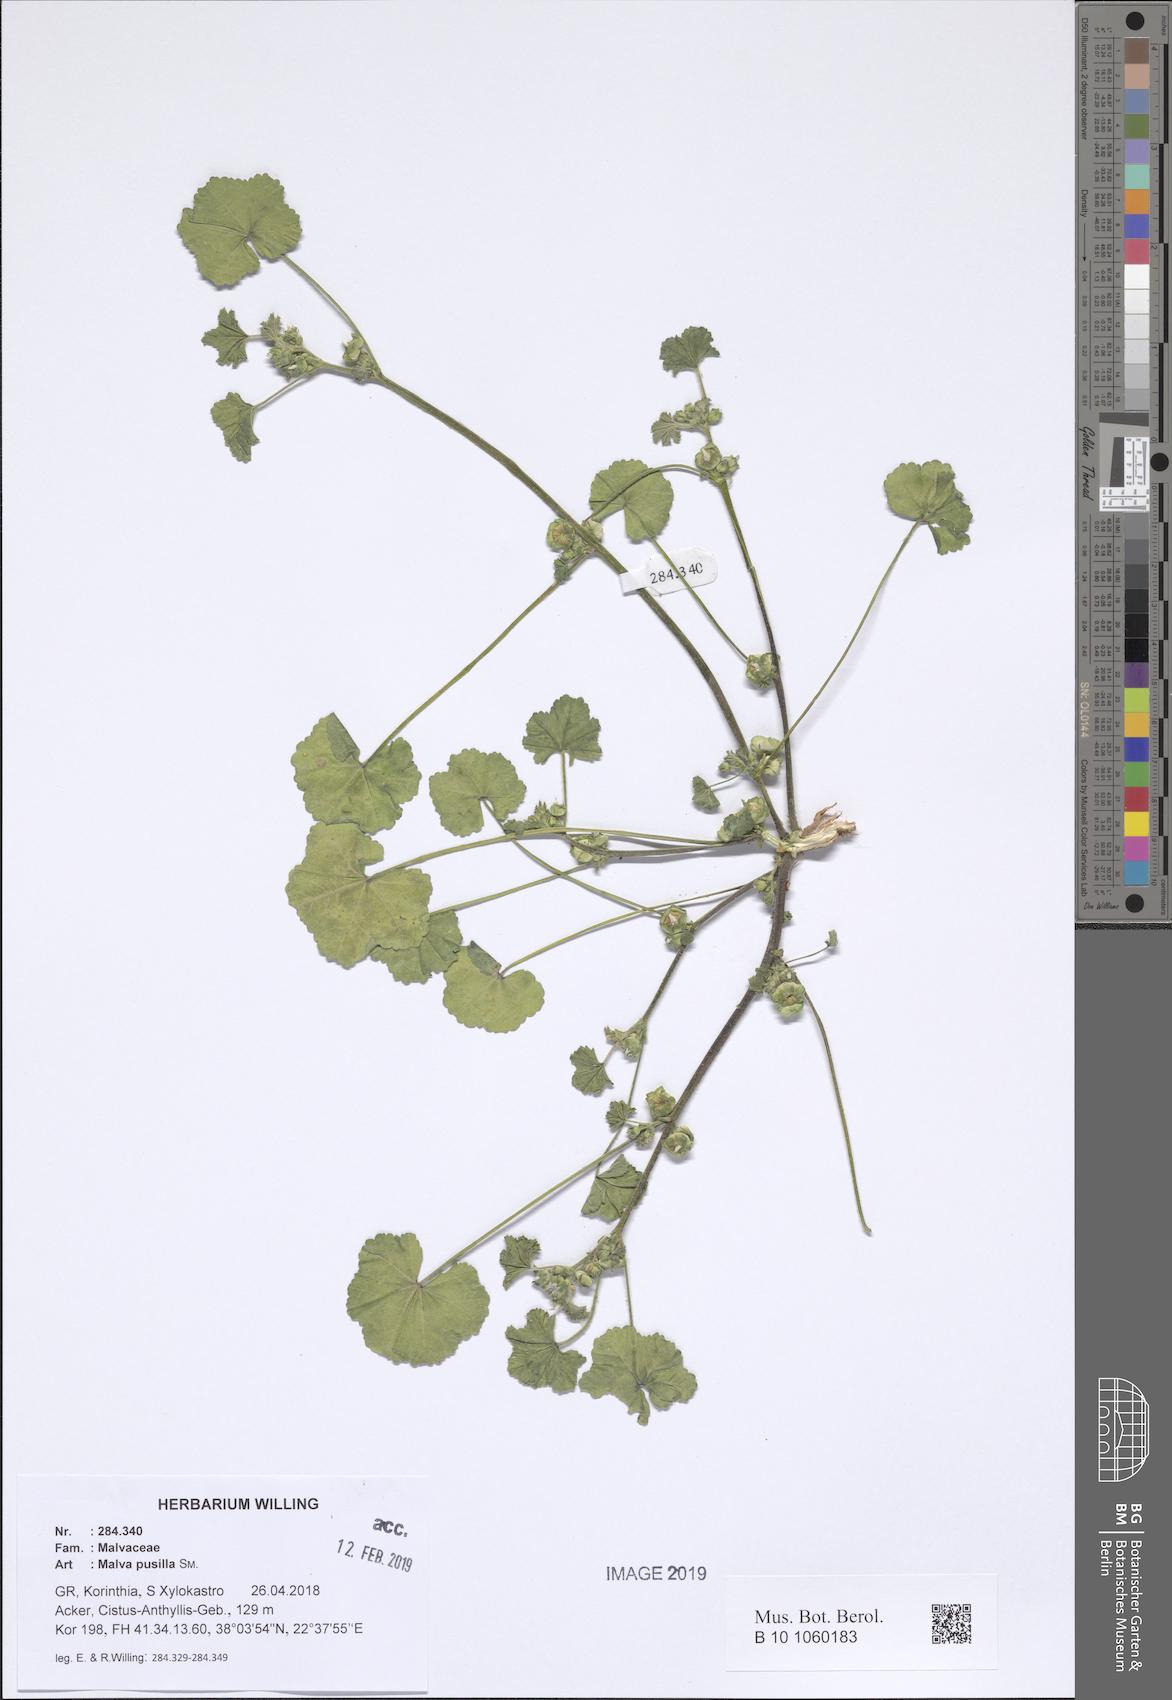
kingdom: Plantae
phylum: Tracheophyta
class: Magnoliopsida
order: Malvales
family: Malvaceae
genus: Malva
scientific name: Malva parviflora
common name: Least mallow
